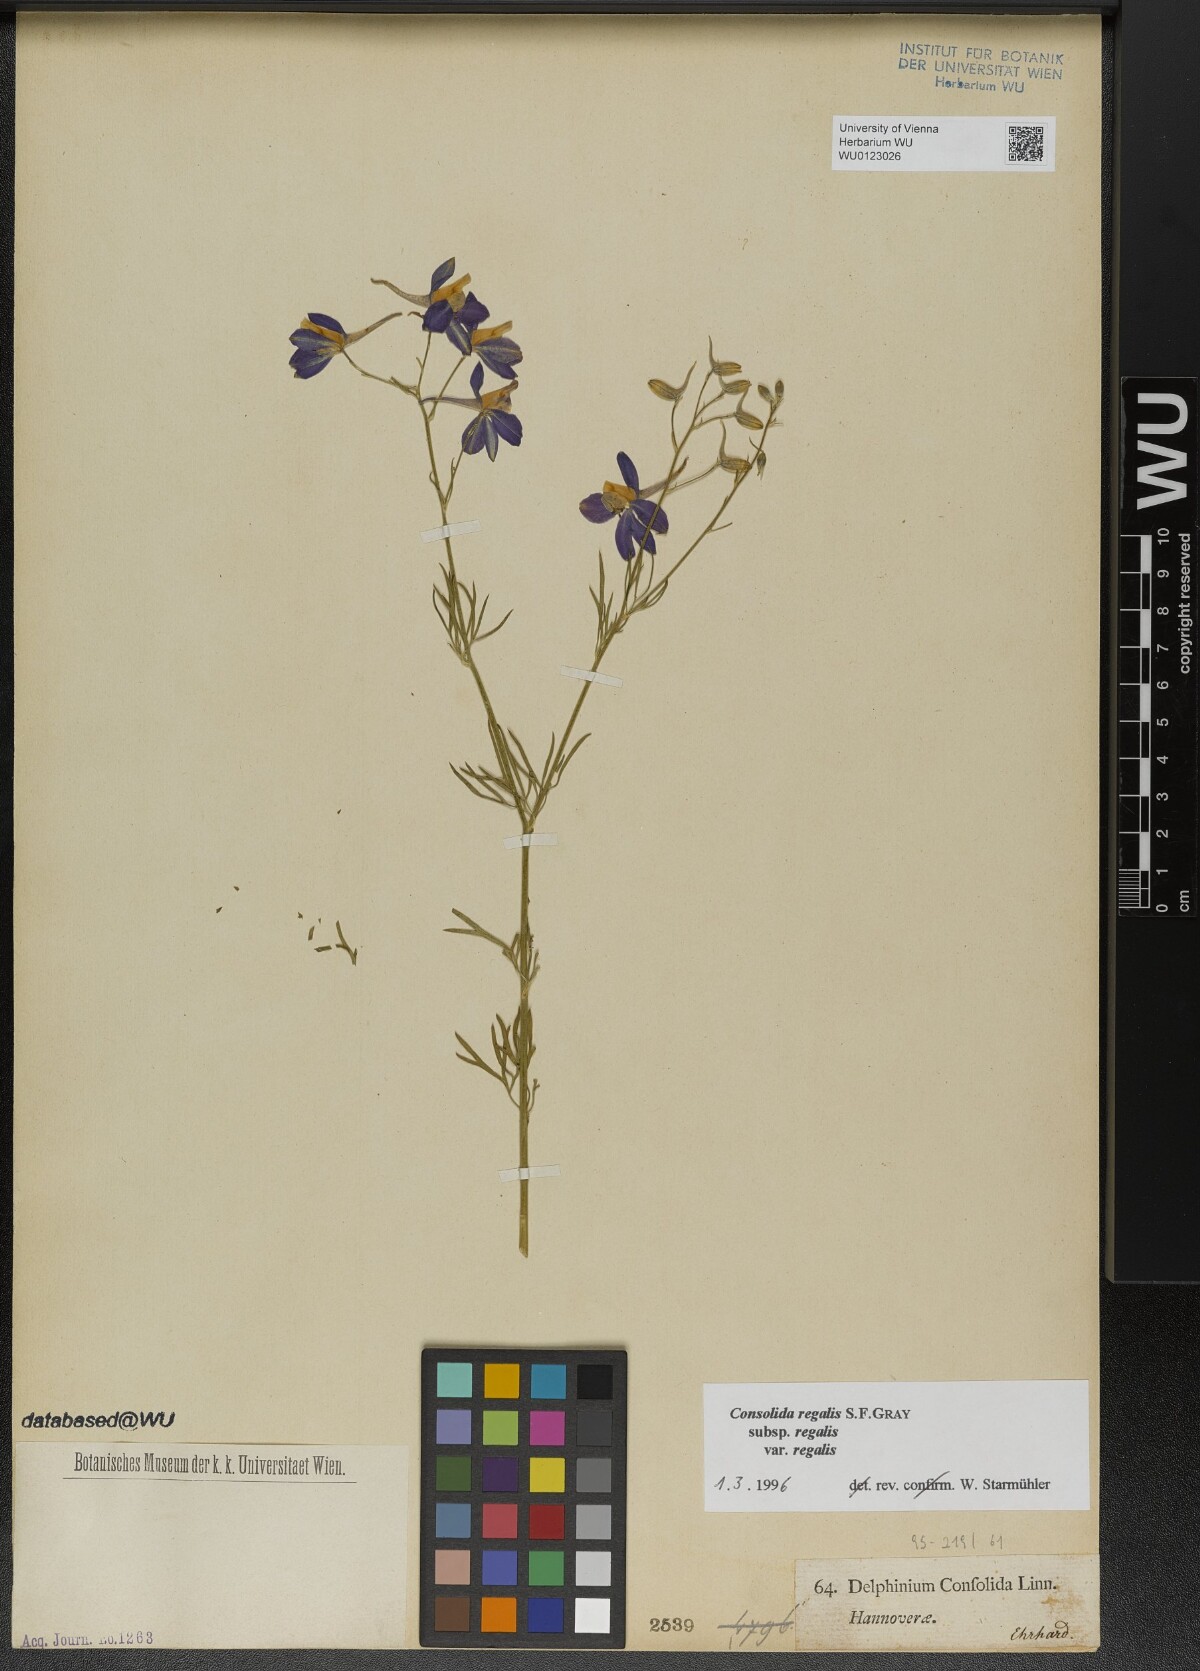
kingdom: Plantae
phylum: Tracheophyta
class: Magnoliopsida
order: Ranunculales
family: Ranunculaceae
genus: Delphinium
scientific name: Delphinium consolida
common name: Branching larkspur
